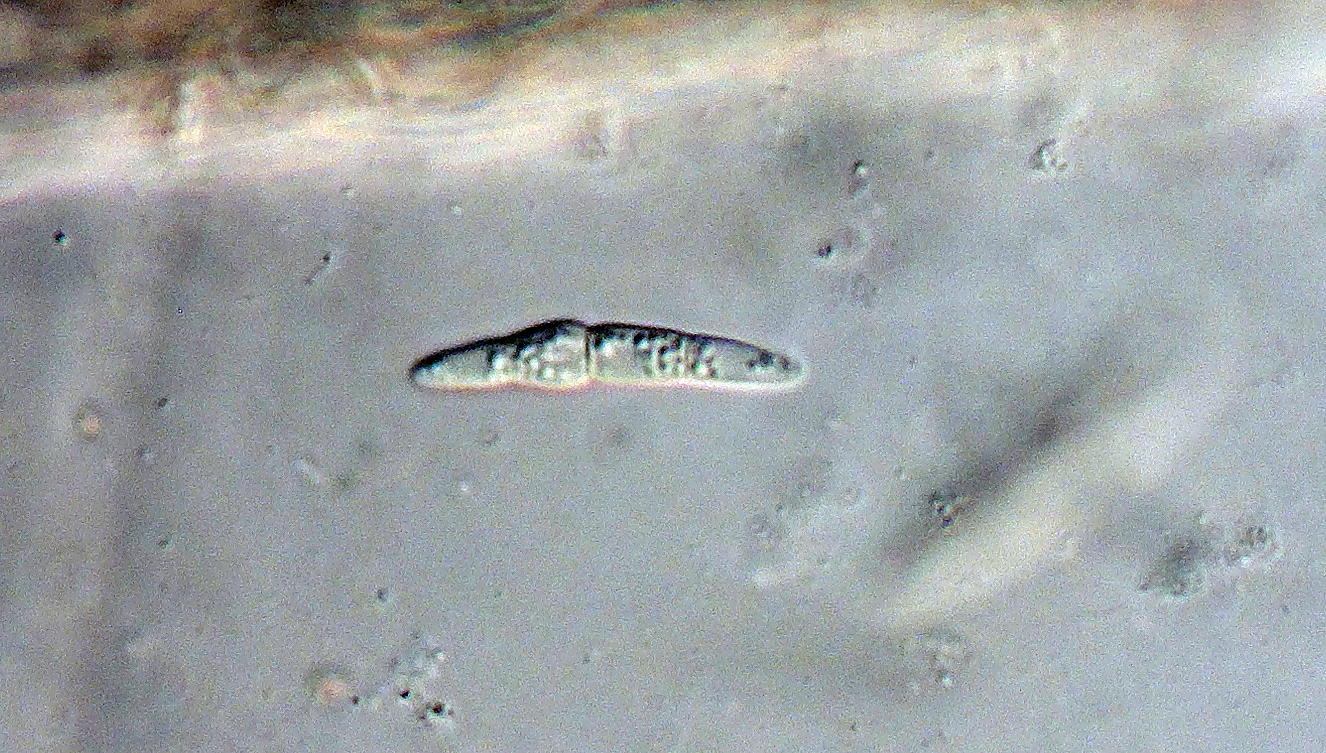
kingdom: Fungi
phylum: Ascomycota
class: Dothideomycetes
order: Pleosporales
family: Phaeosphaeriaceae
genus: Phaeosphaeria
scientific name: Phaeosphaeria eustoma
